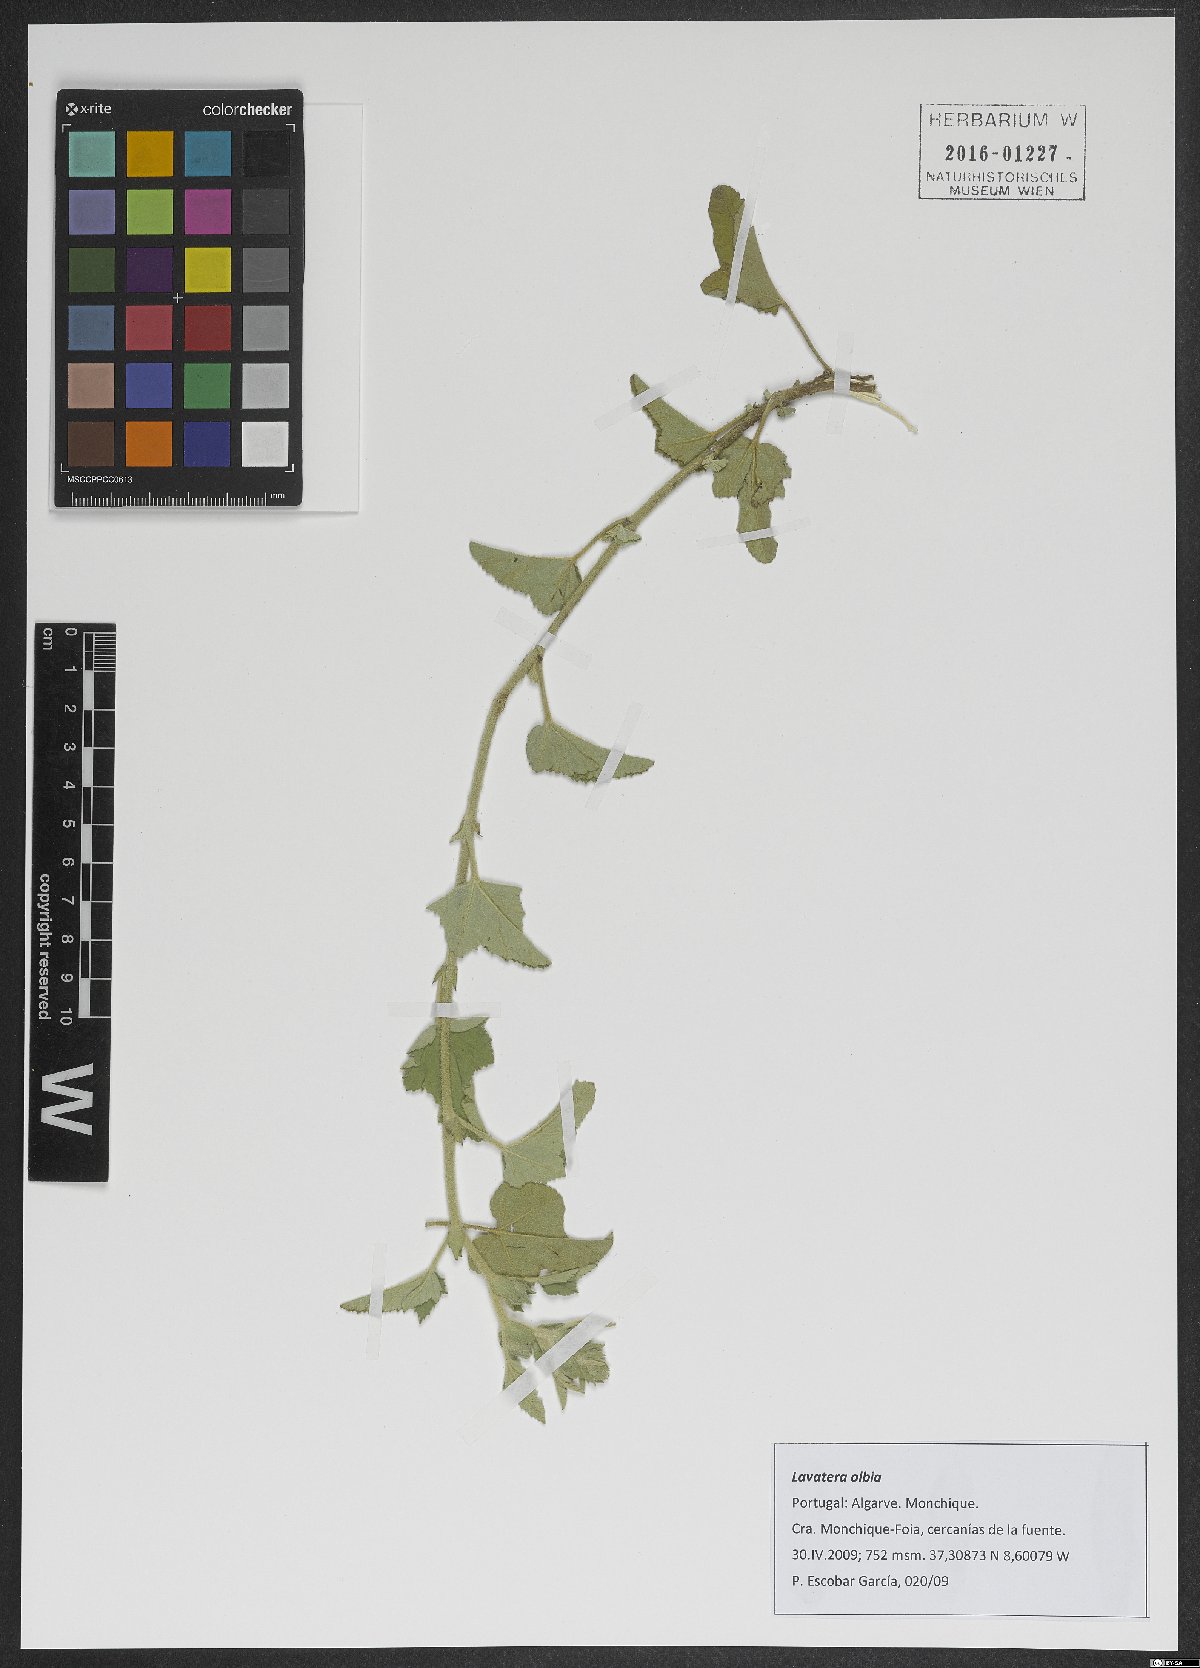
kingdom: Plantae
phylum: Tracheophyta
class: Magnoliopsida
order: Malvales
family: Malvaceae
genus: Malva
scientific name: Malva olbia
